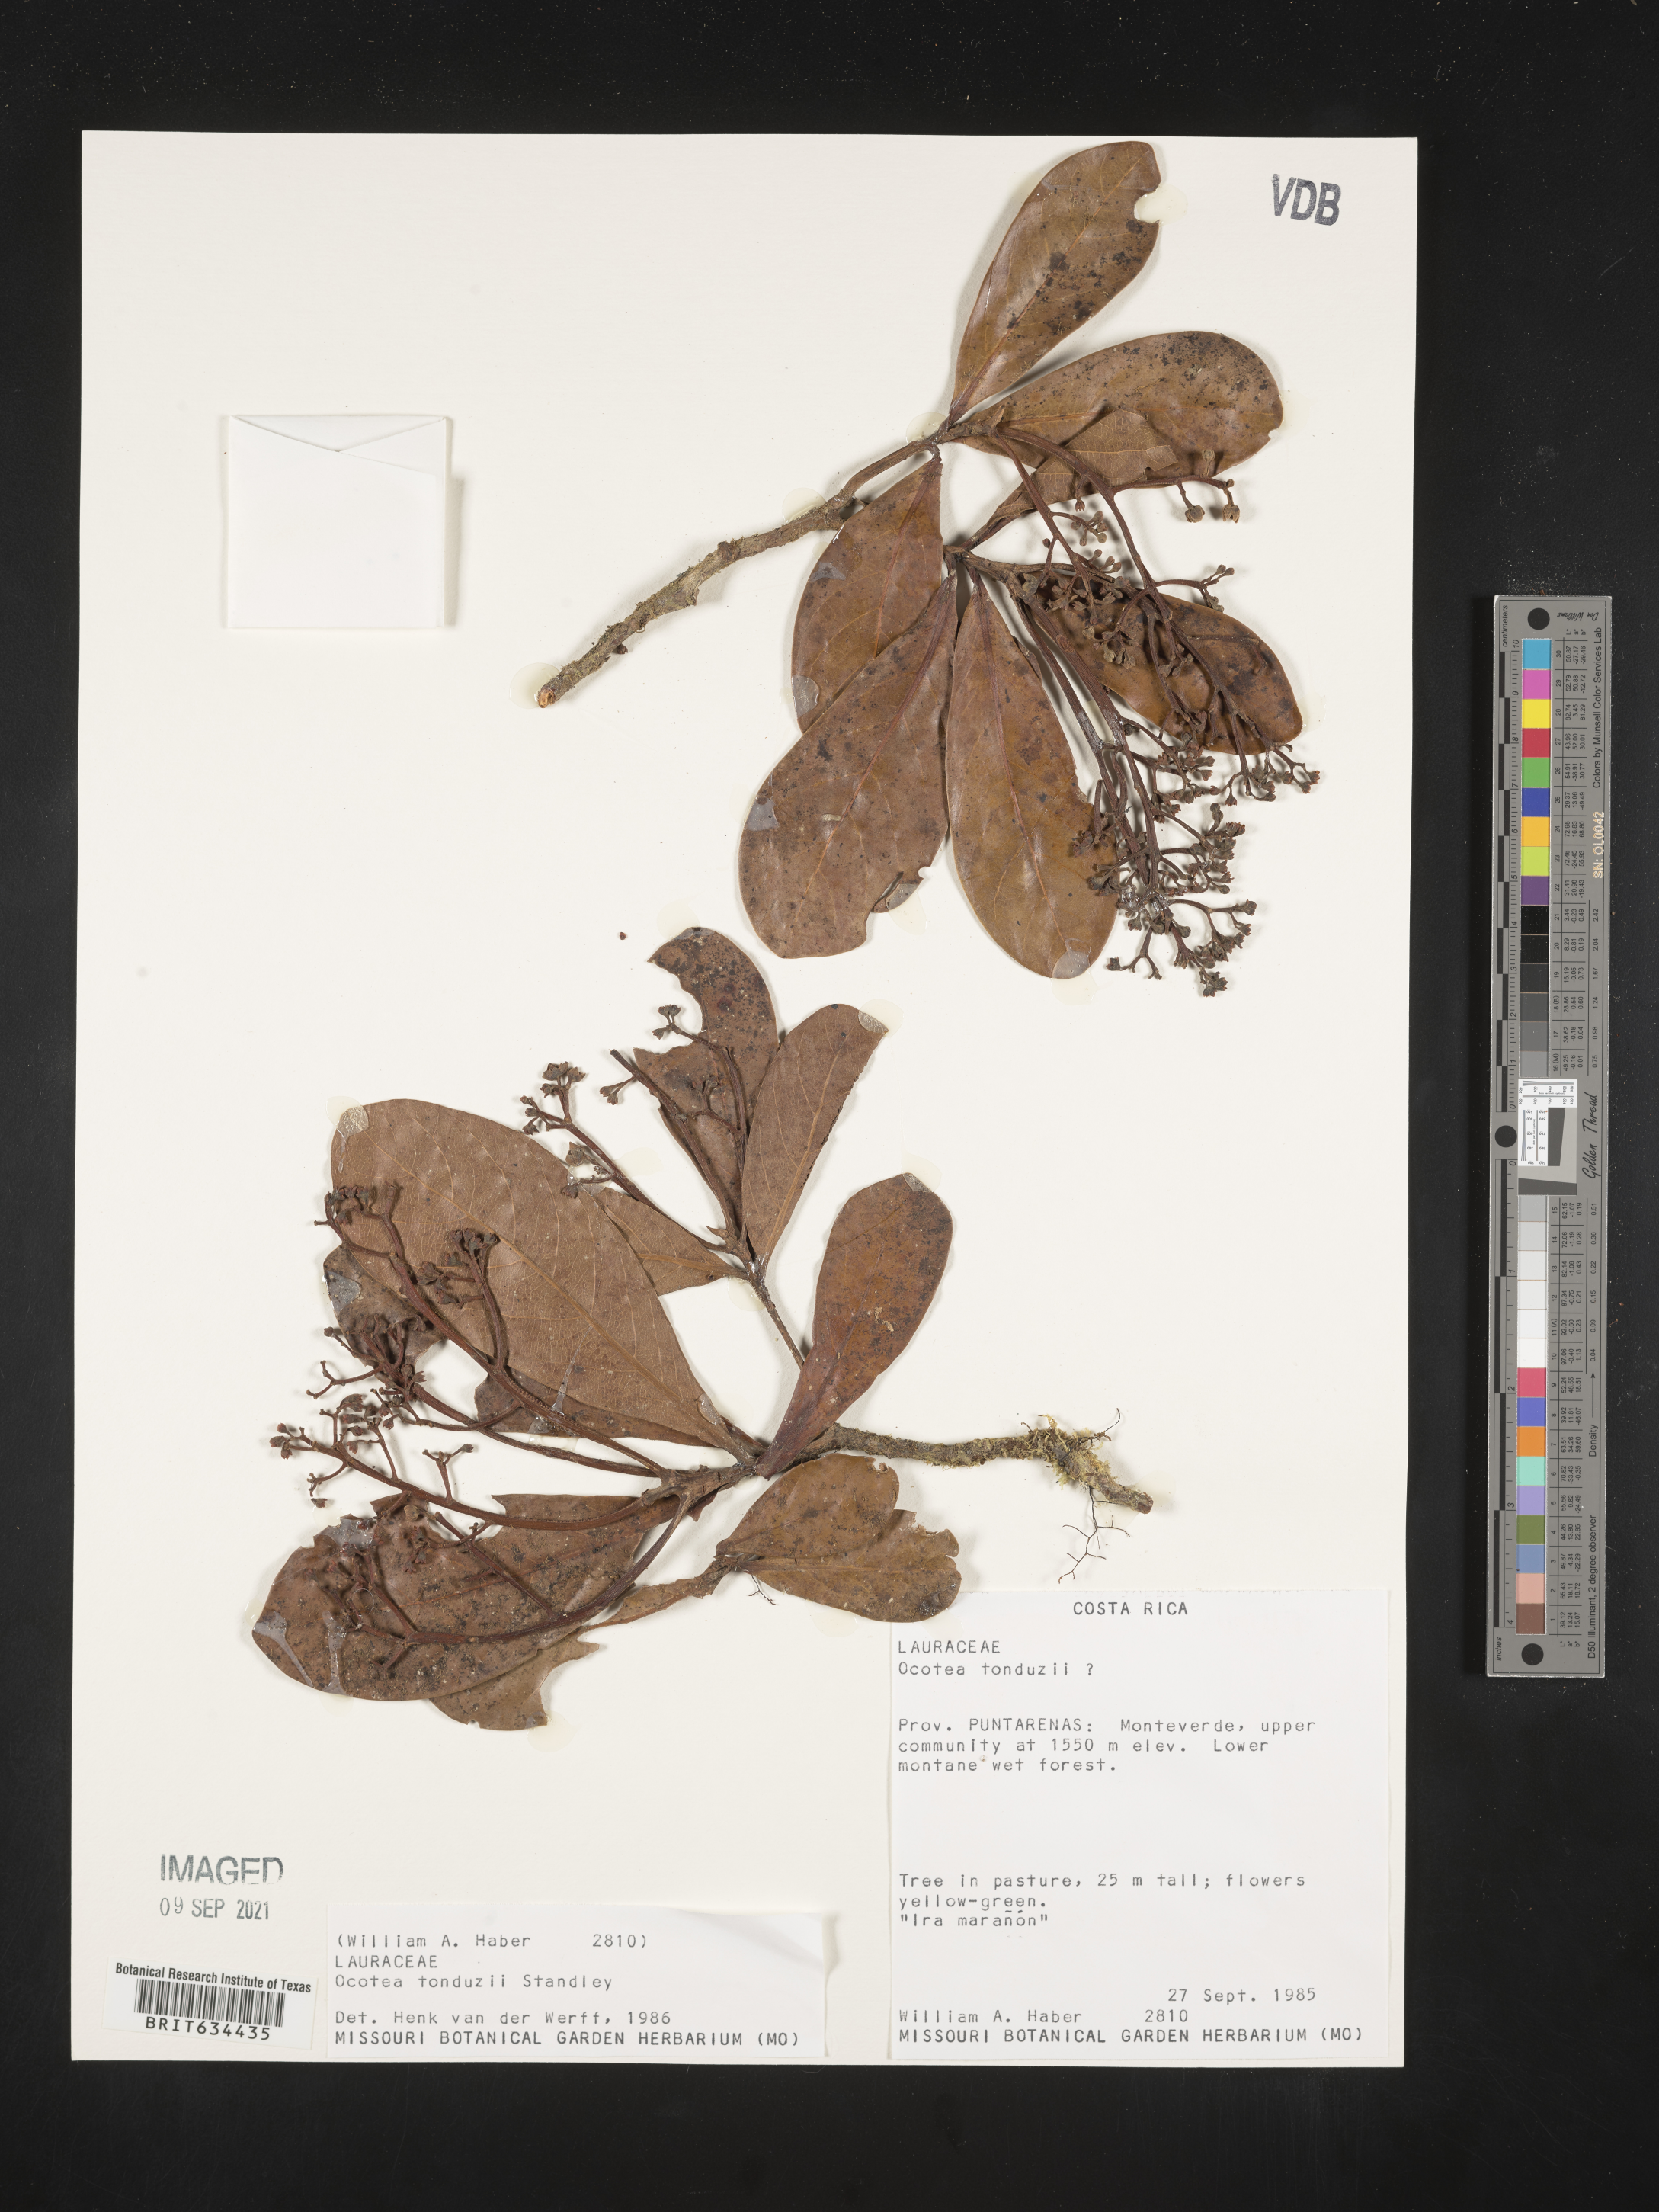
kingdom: Plantae
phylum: Tracheophyta
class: Magnoliopsida
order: Laurales
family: Lauraceae
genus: Ocotea
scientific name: Ocotea
